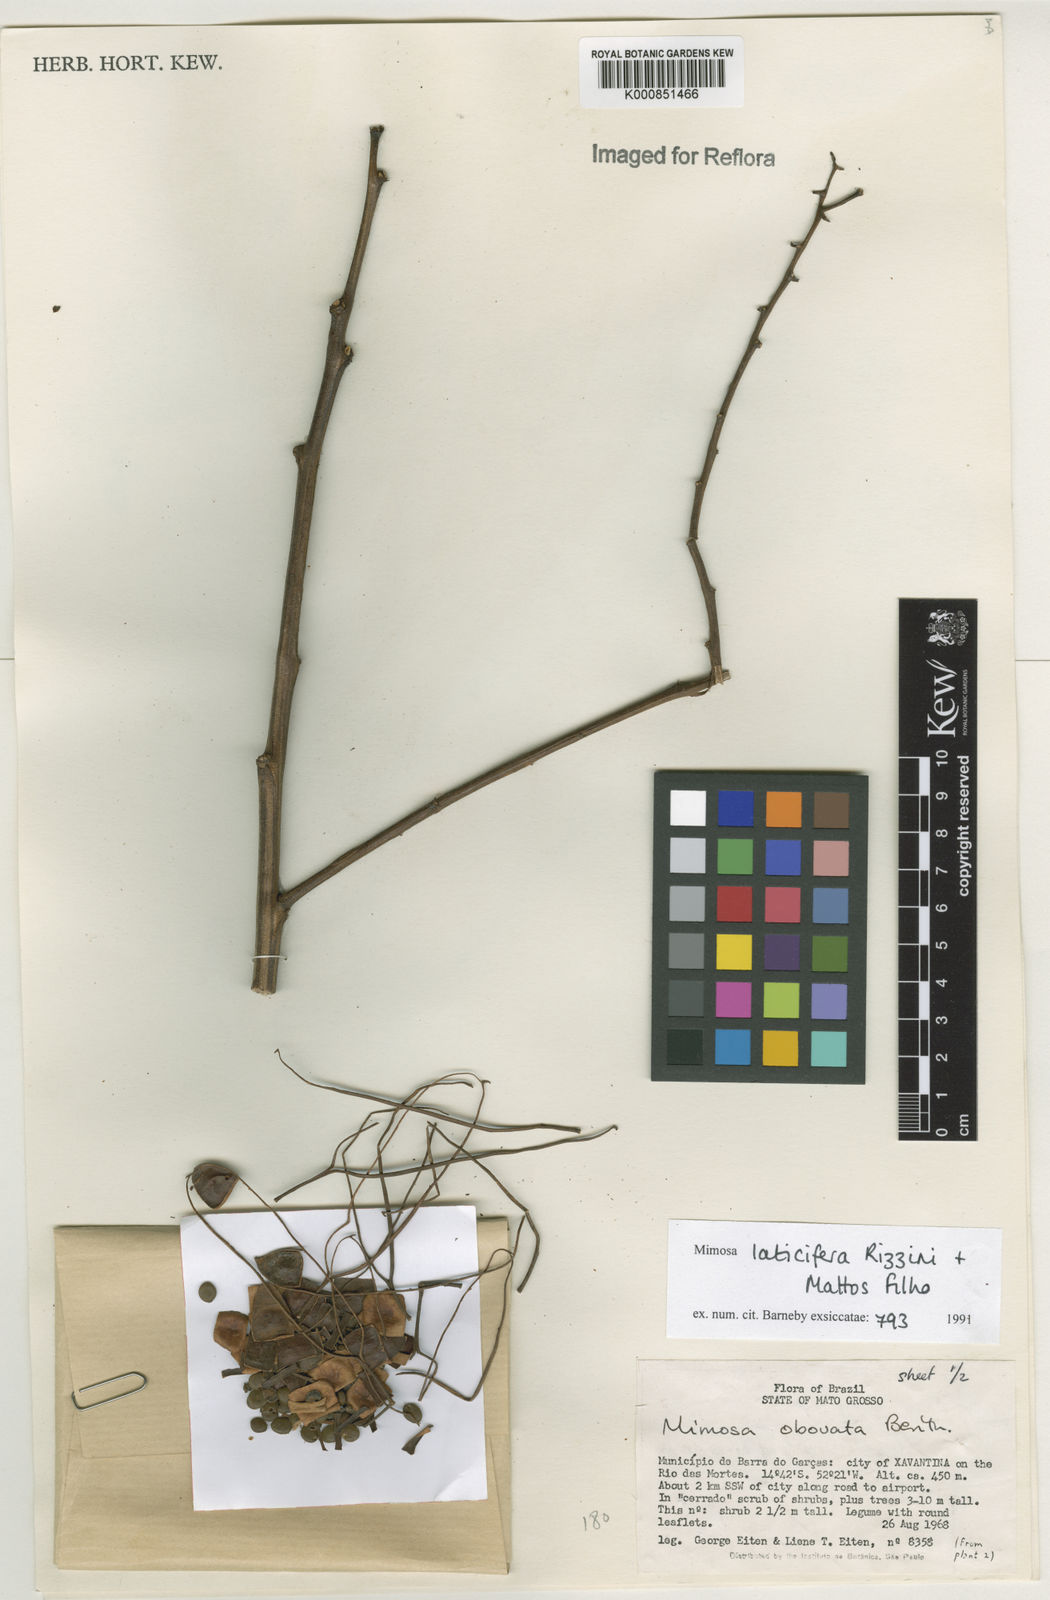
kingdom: Plantae
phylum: Tracheophyta
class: Magnoliopsida
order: Fabales
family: Fabaceae
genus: Mimosa
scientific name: Mimosa laticifera
